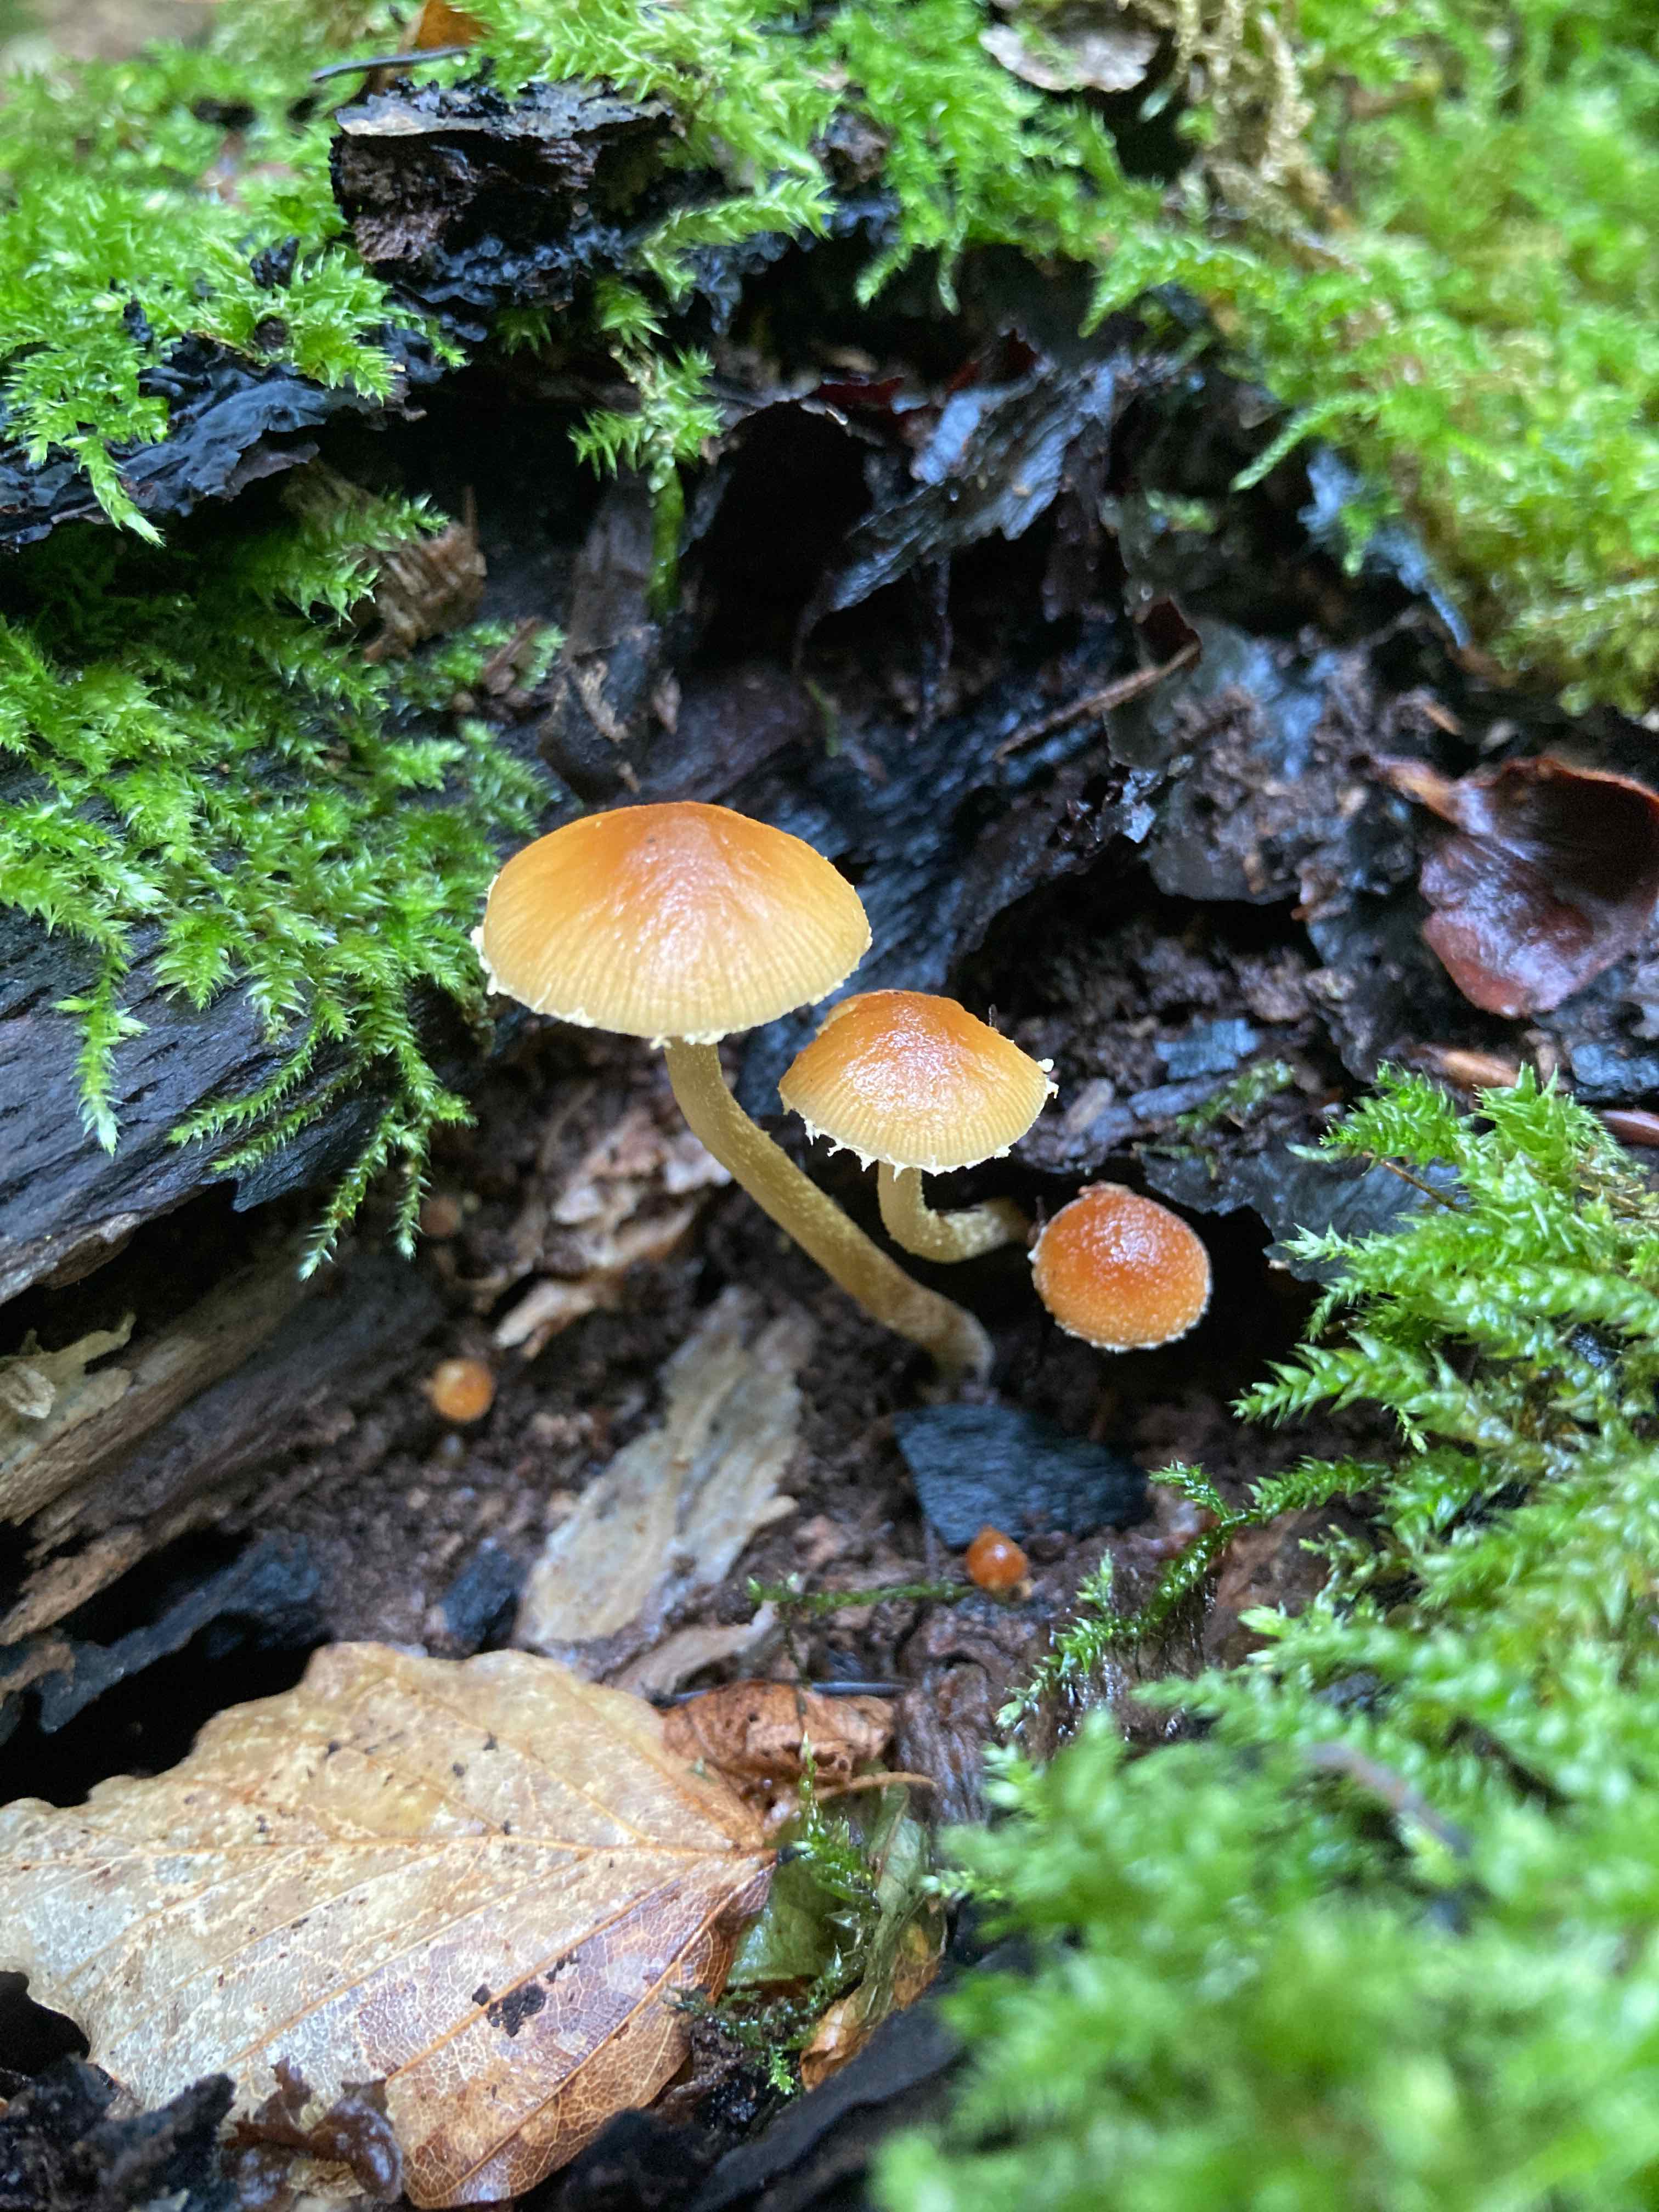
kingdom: Fungi
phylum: Basidiomycota
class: Agaricomycetes
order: Agaricales
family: Bolbitiaceae
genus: Conocybe
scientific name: Conocybe brunnea
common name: slør-dansehat
